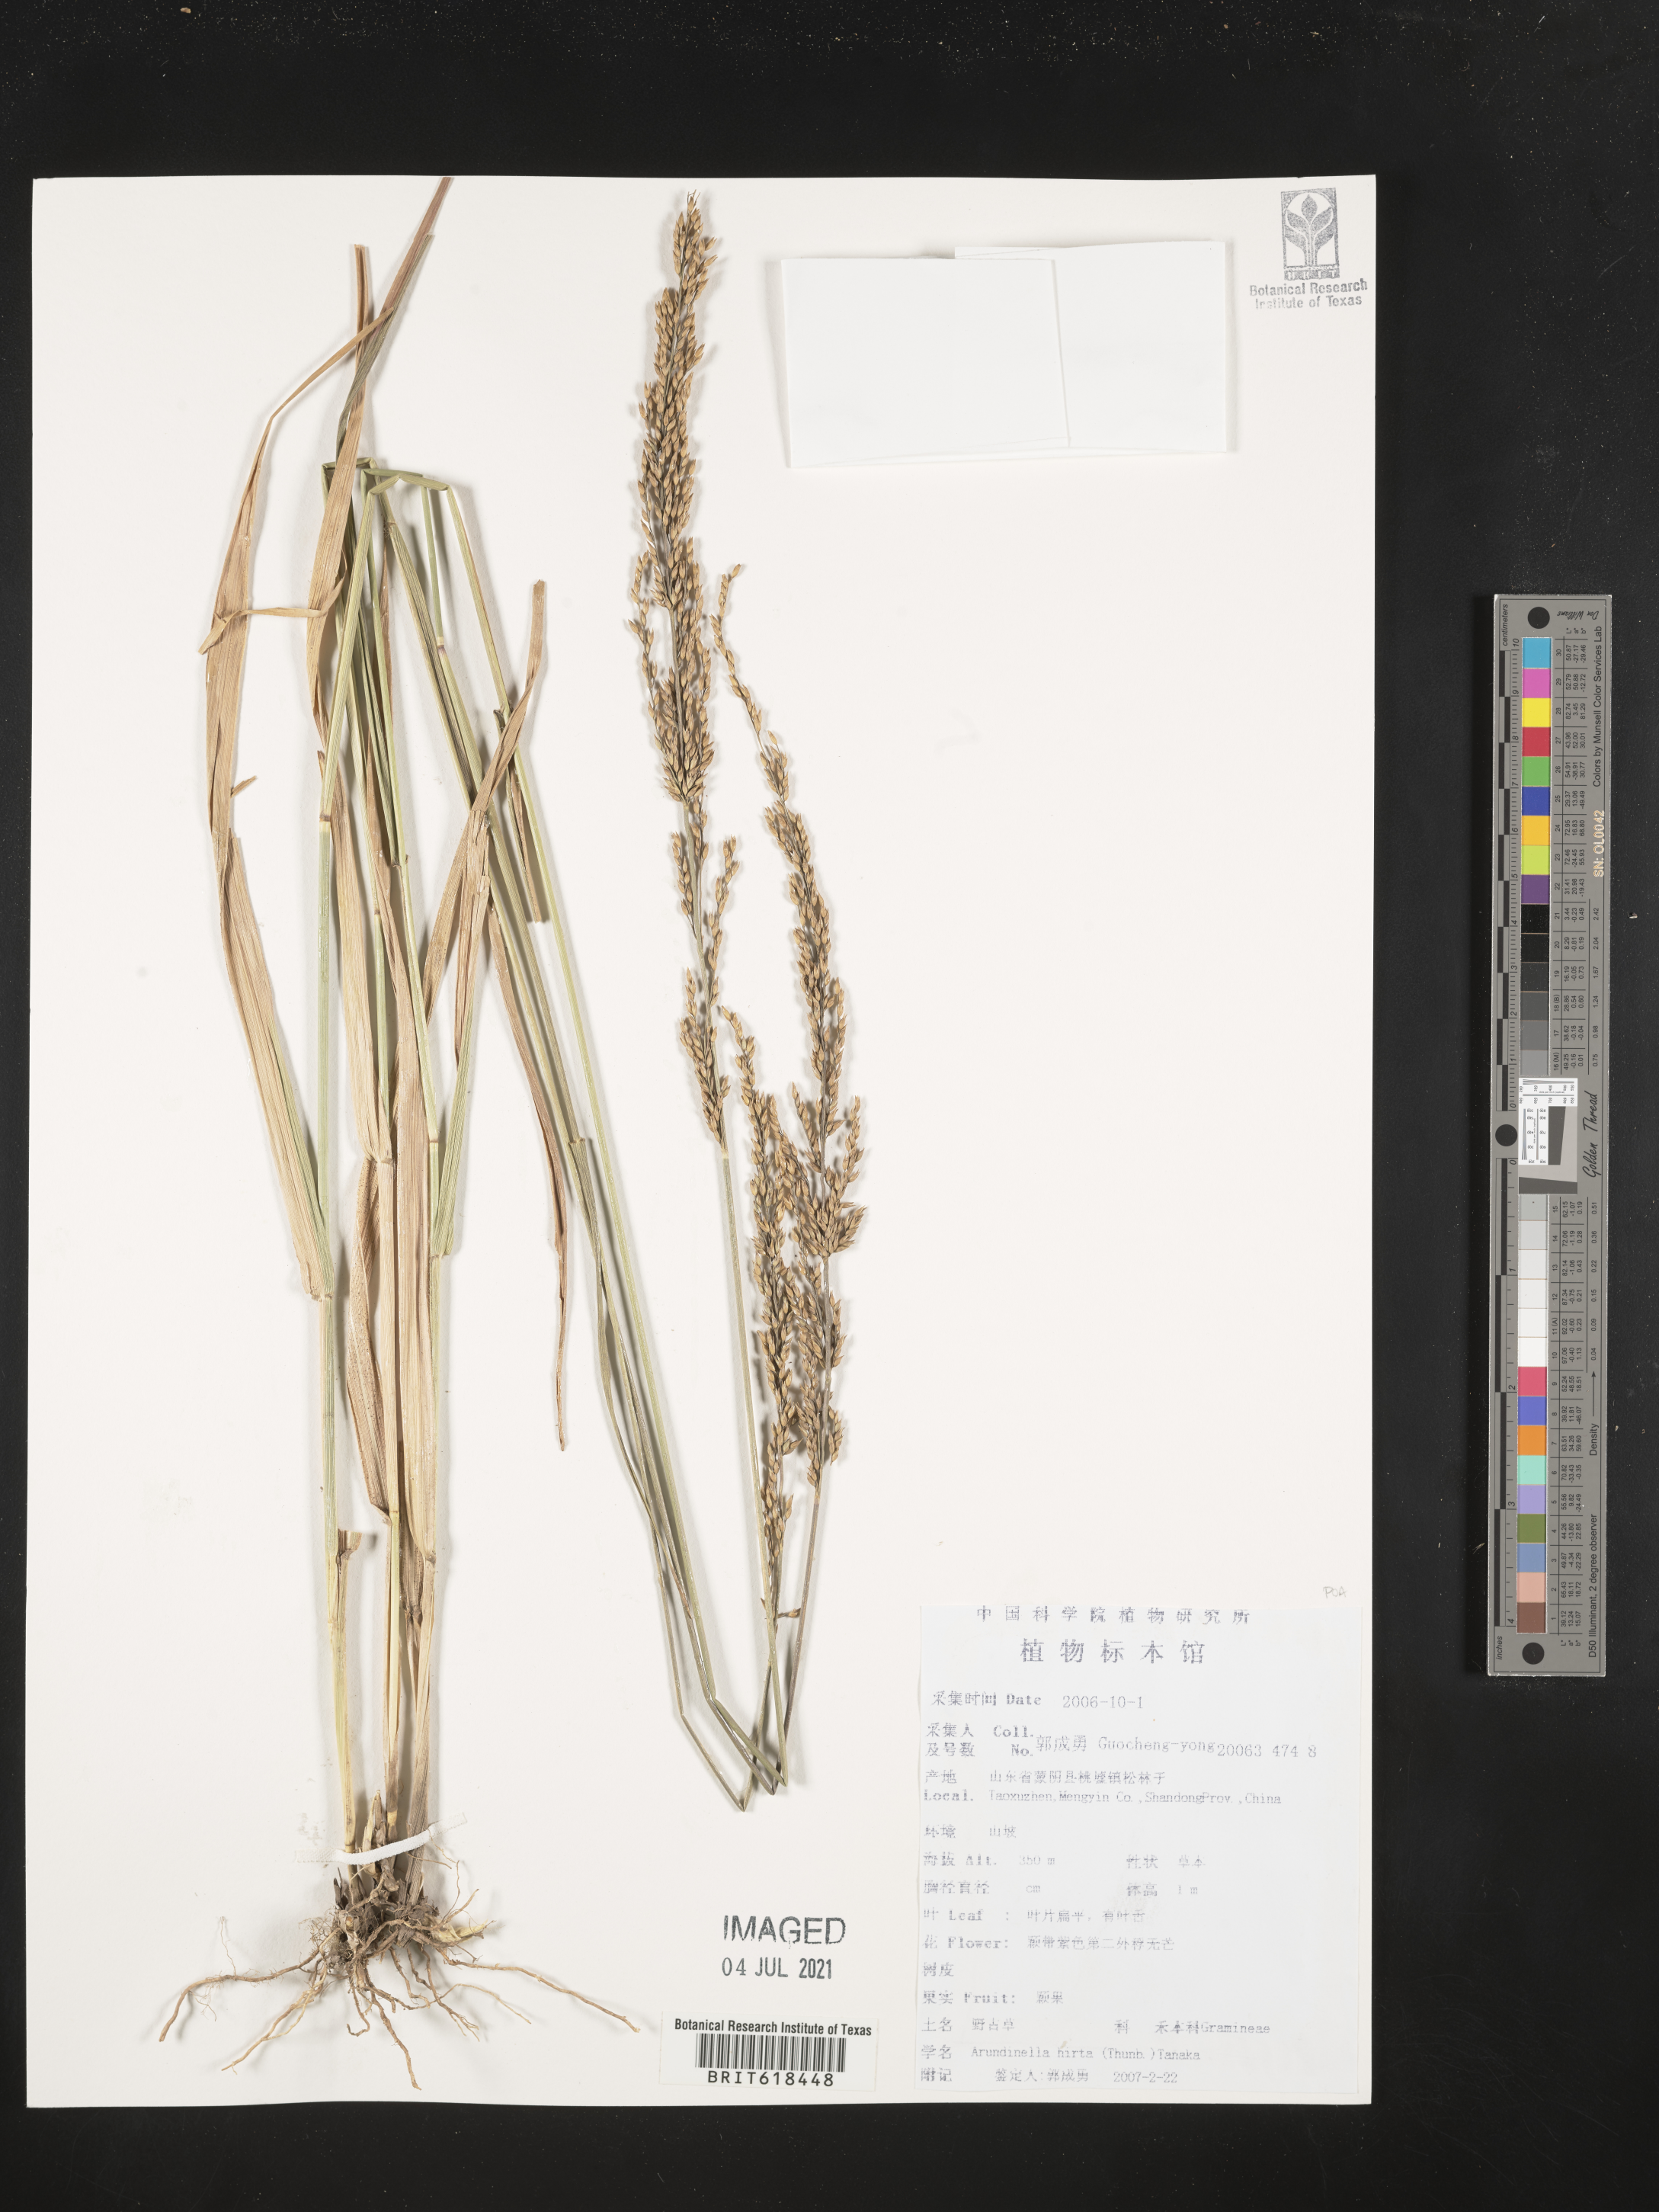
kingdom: Plantae
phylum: Tracheophyta
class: Liliopsida
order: Poales
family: Poaceae
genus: Arundinella
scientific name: Arundinella hirta
